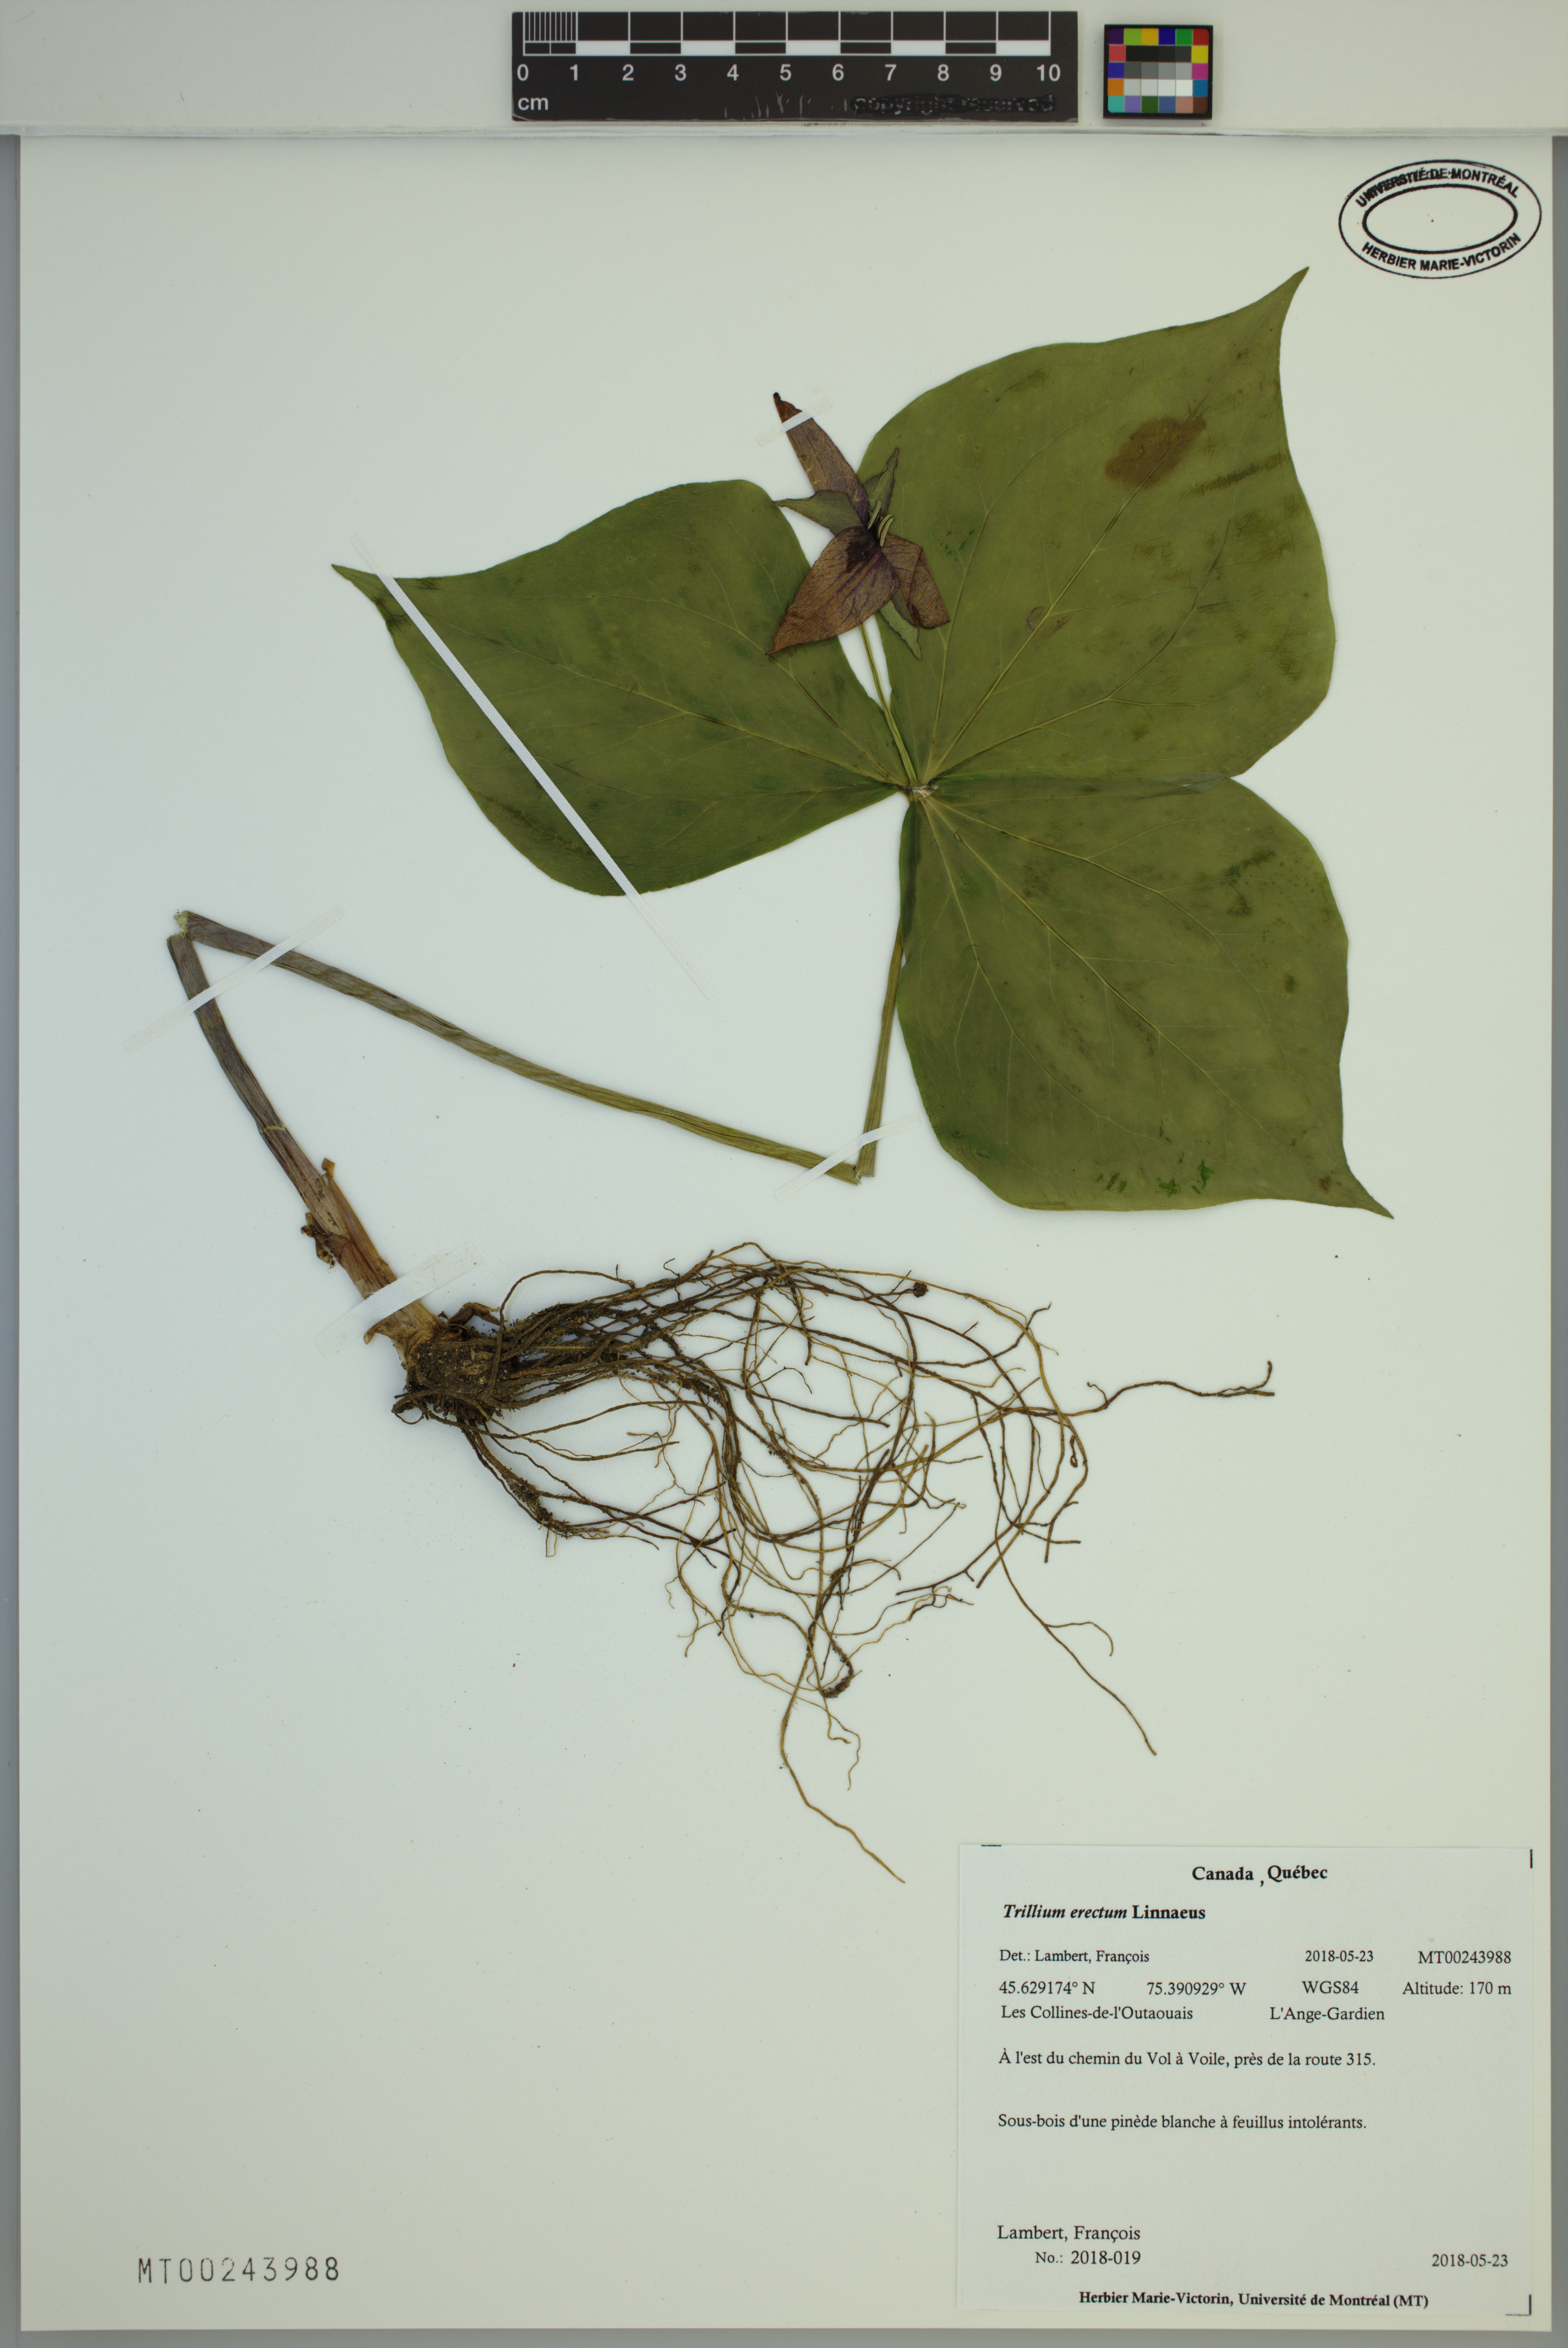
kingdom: Plantae
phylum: Tracheophyta
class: Liliopsida
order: Liliales
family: Melanthiaceae
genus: Trillium
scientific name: Trillium erectum
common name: Purple trillium
